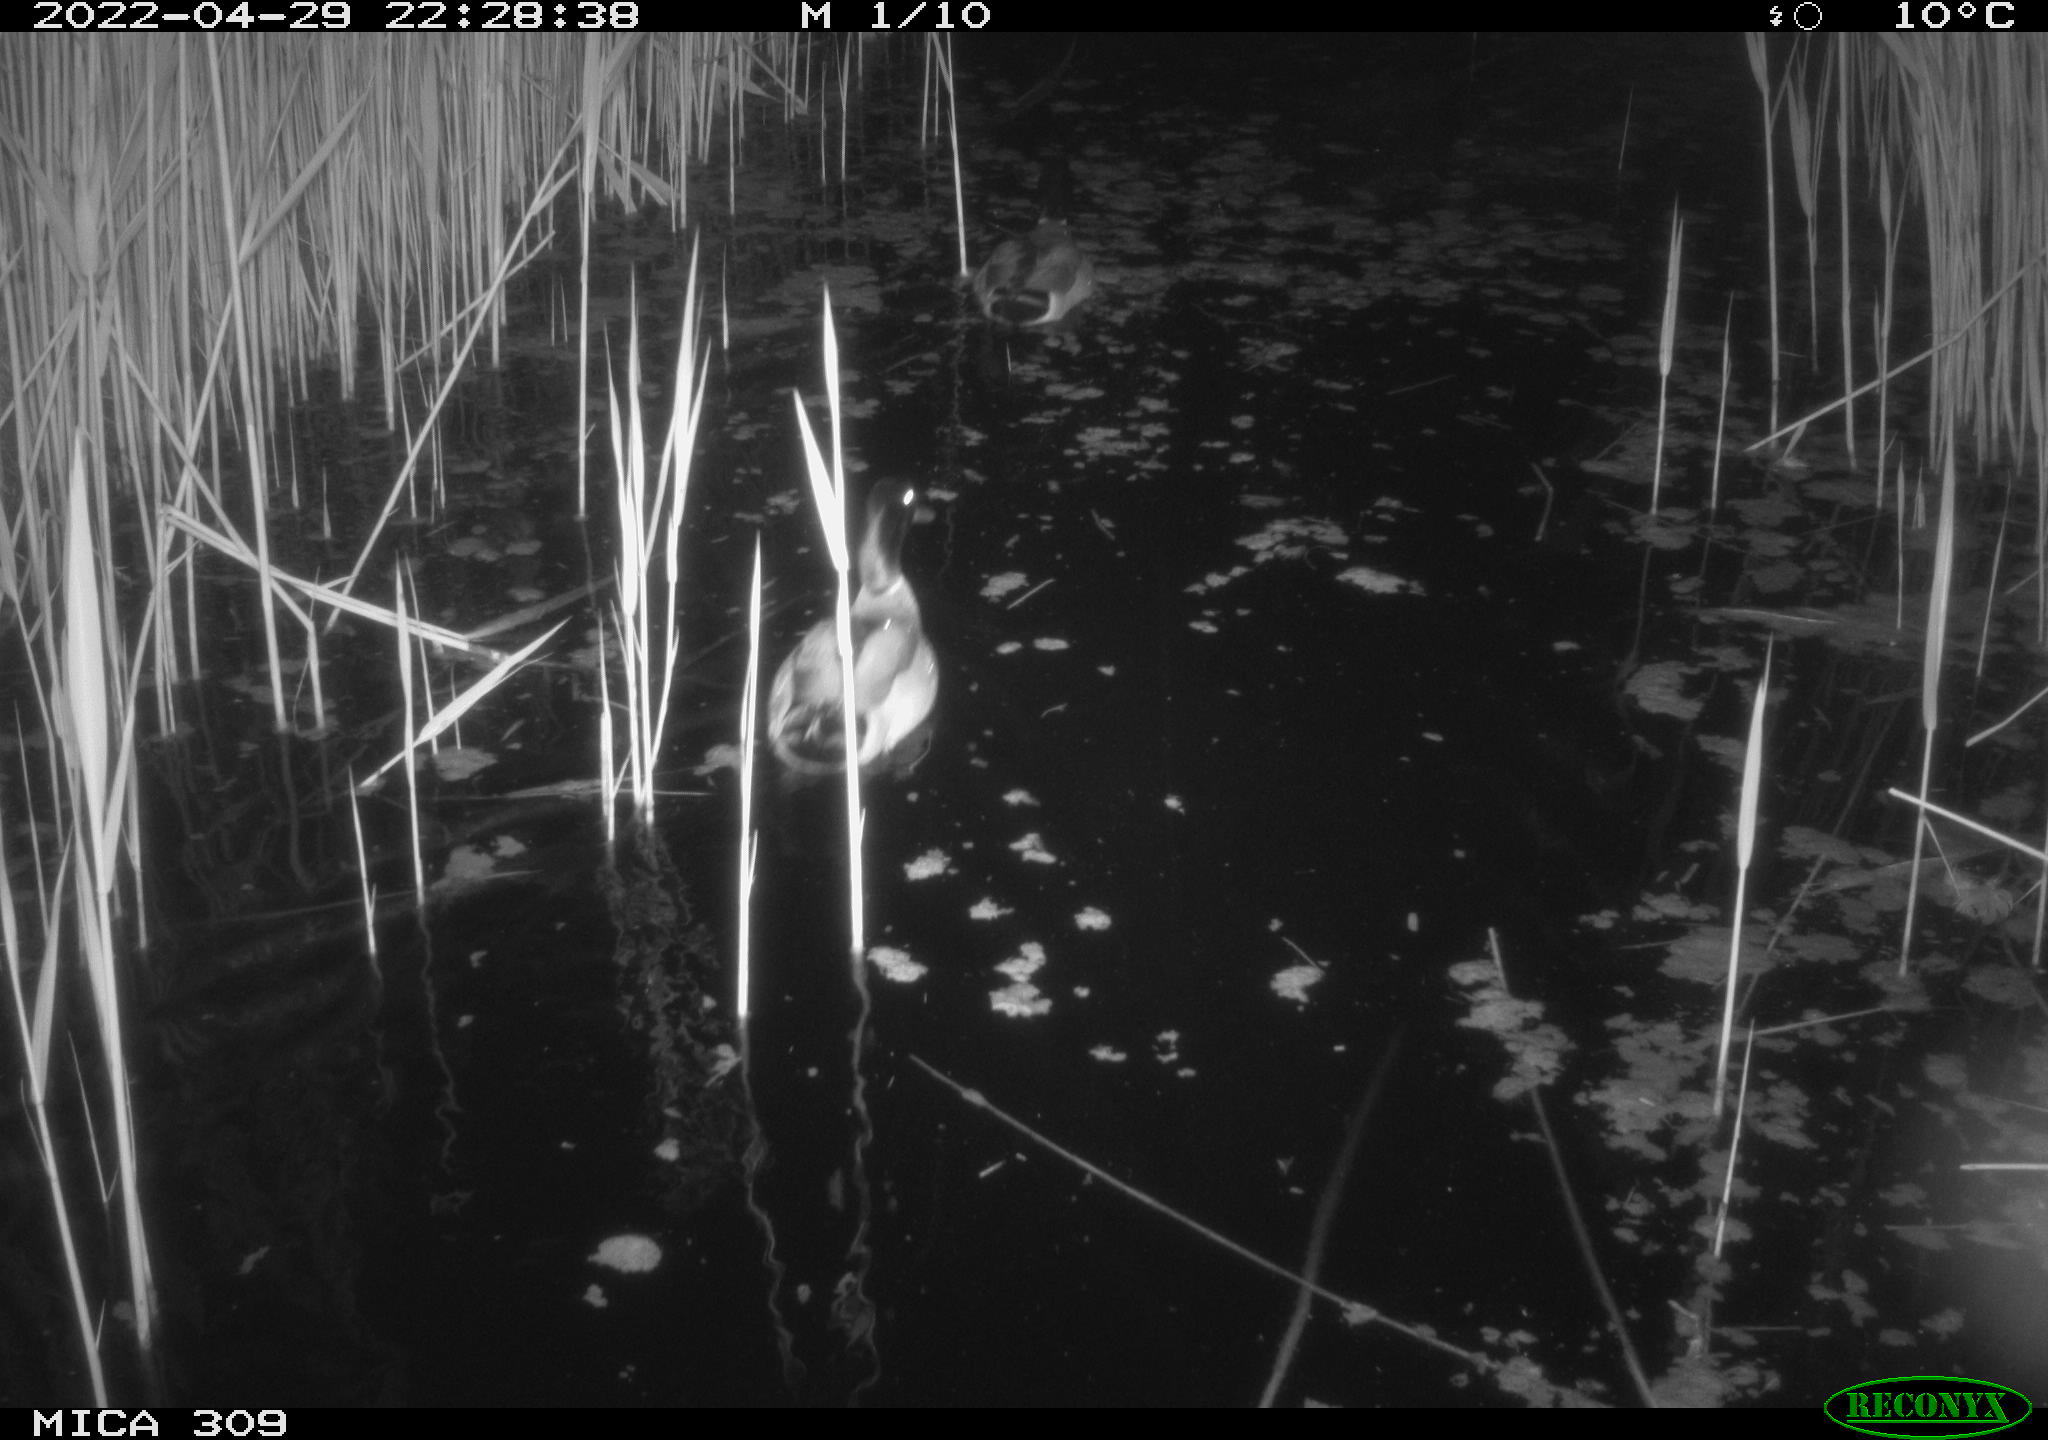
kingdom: Animalia
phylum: Chordata
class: Aves
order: Anseriformes
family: Anatidae
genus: Anas
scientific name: Anas platyrhynchos
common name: Mallard
